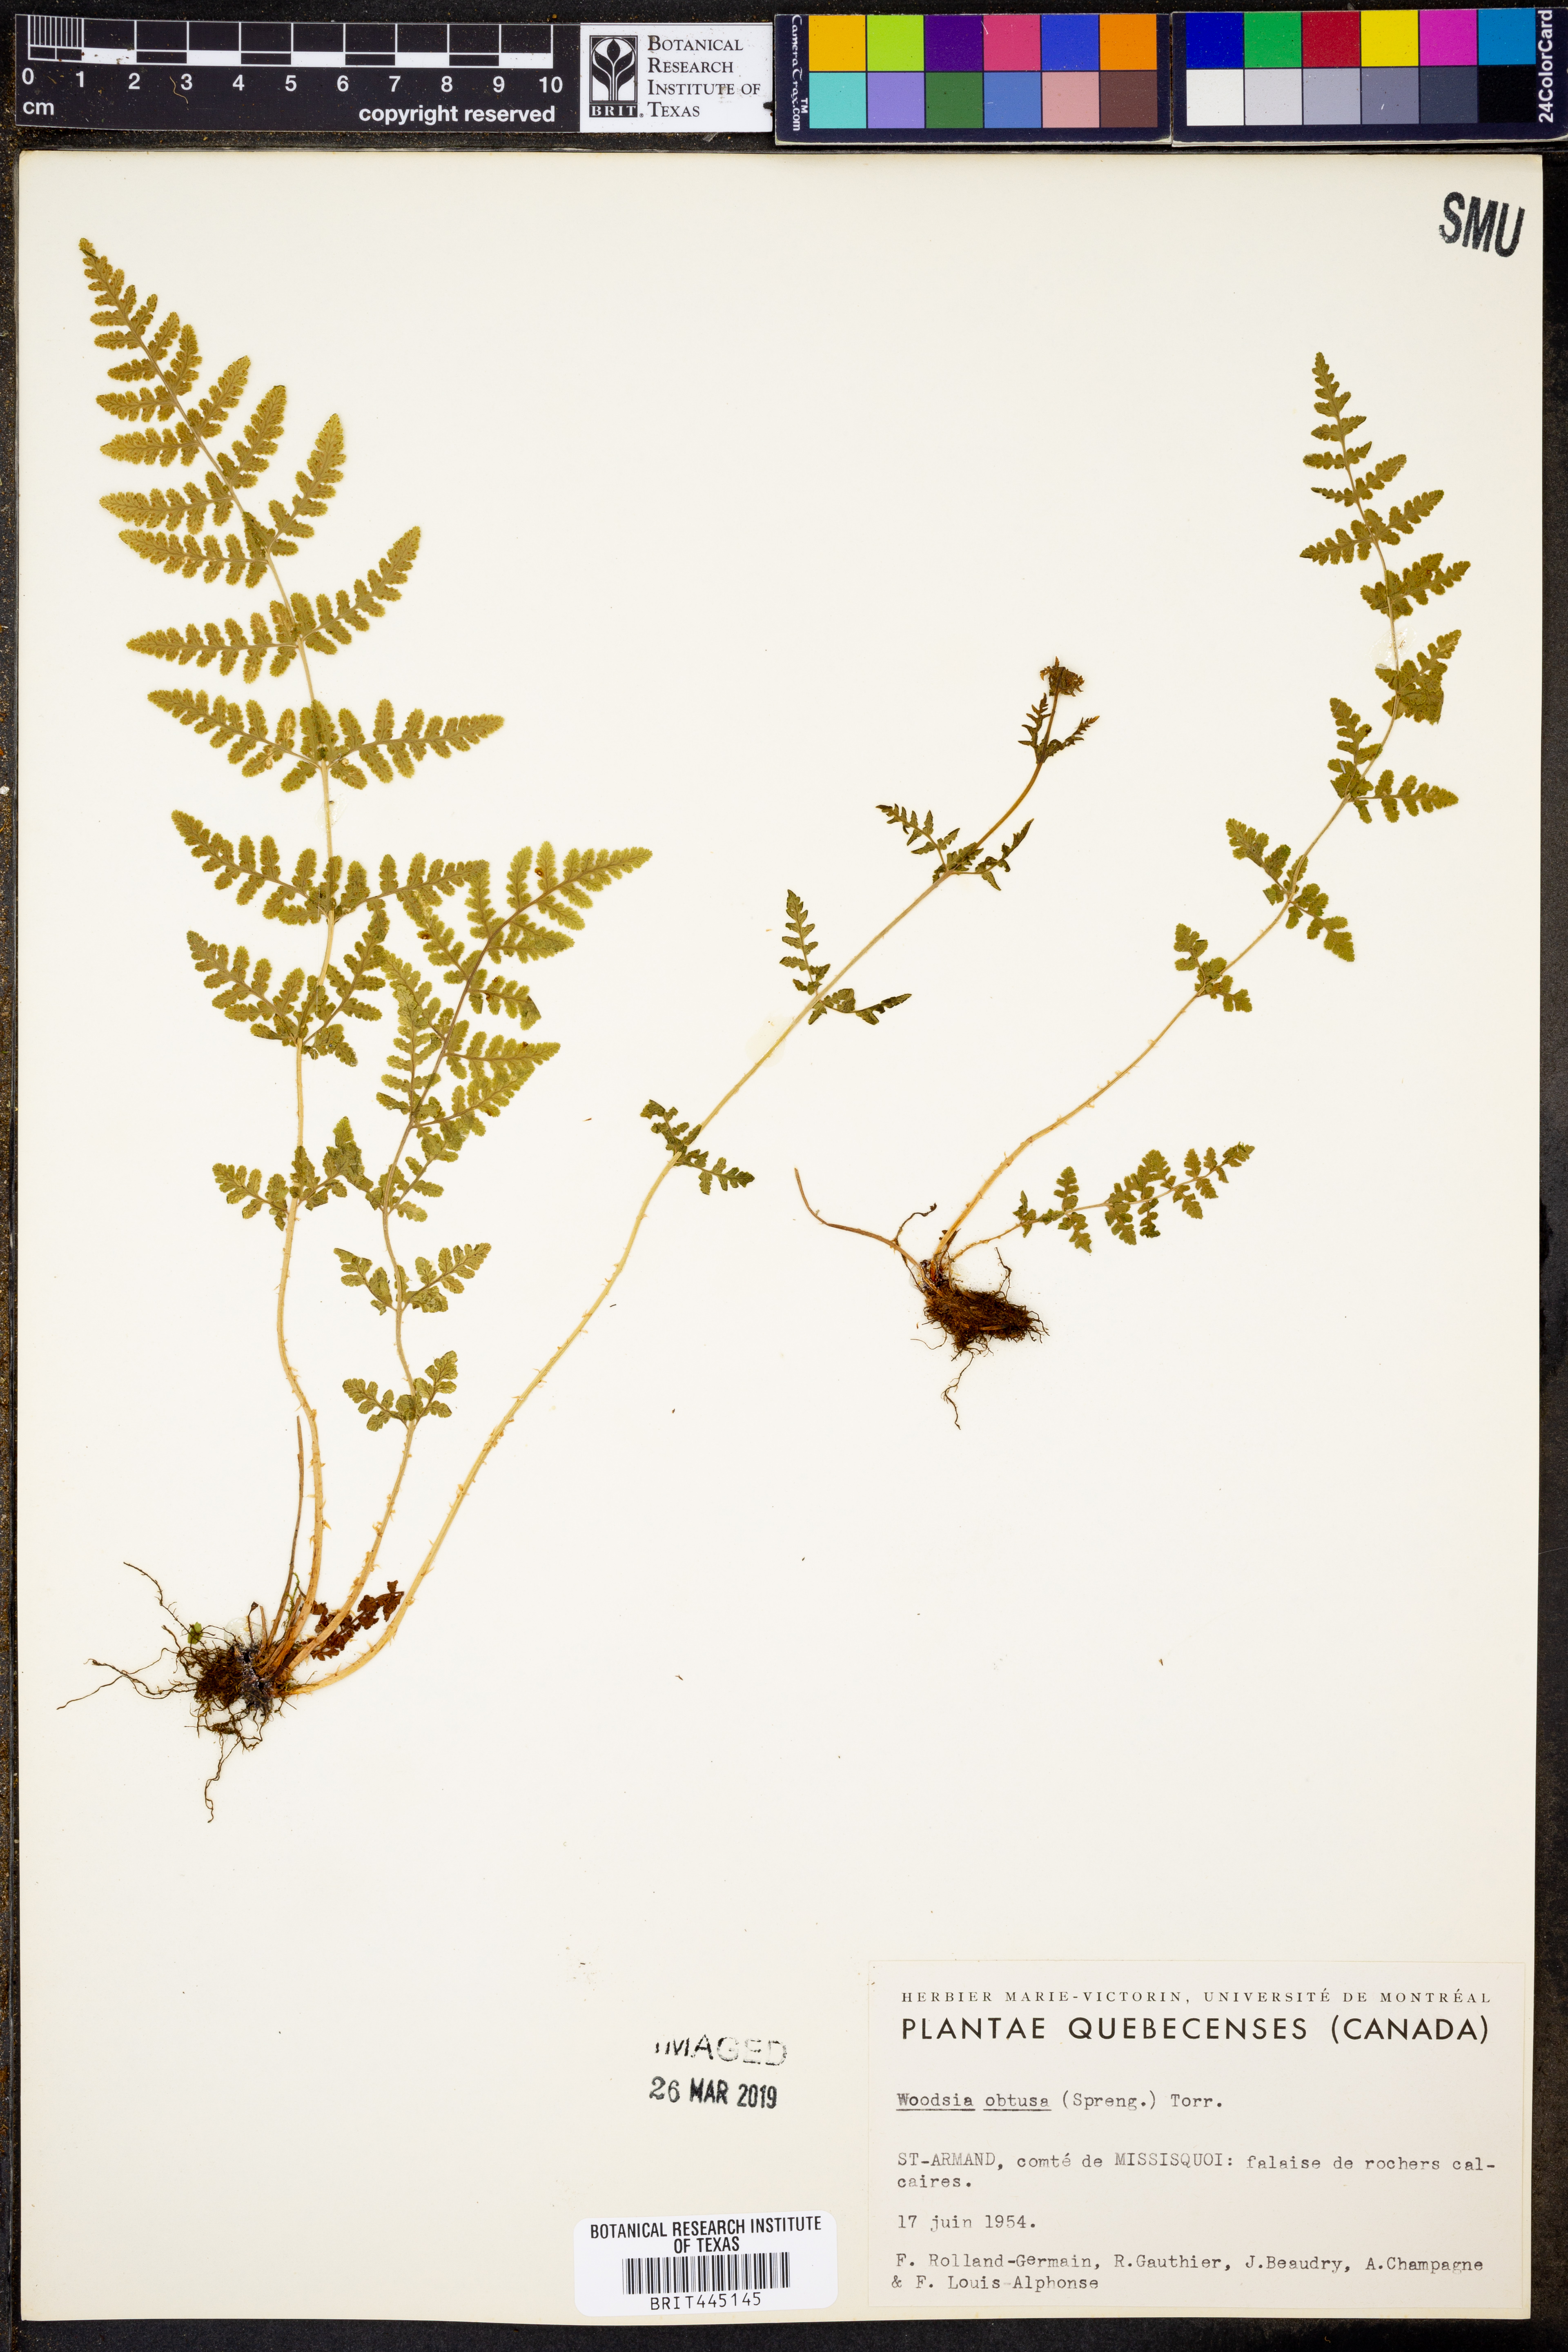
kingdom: Plantae
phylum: Tracheophyta
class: Polypodiopsida
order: Polypodiales
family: Woodsiaceae
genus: Physematium
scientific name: Physematium obtusum
